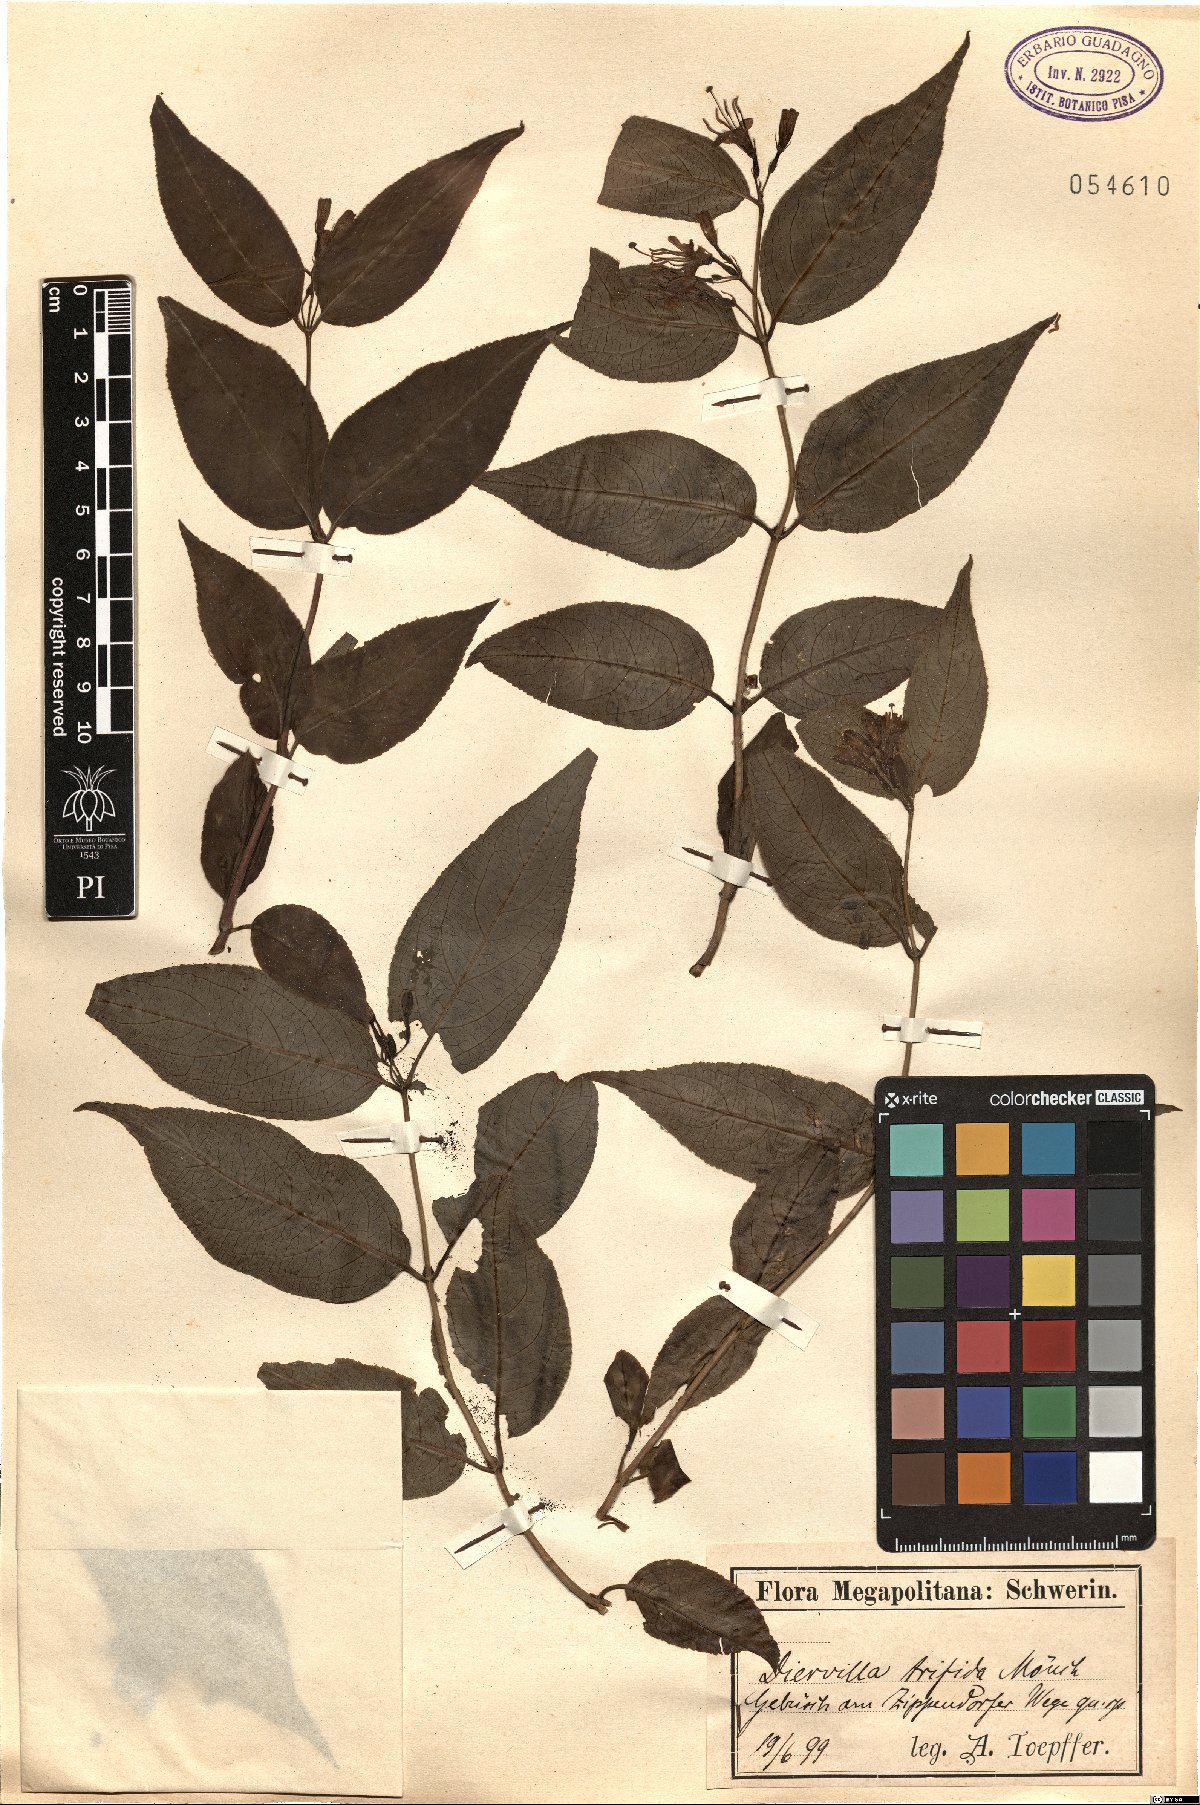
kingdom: Plantae
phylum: Tracheophyta
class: Magnoliopsida
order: Dipsacales
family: Caprifoliaceae
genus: Diervilla
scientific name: Diervilla lonicera
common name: Bush-honeysuckle
